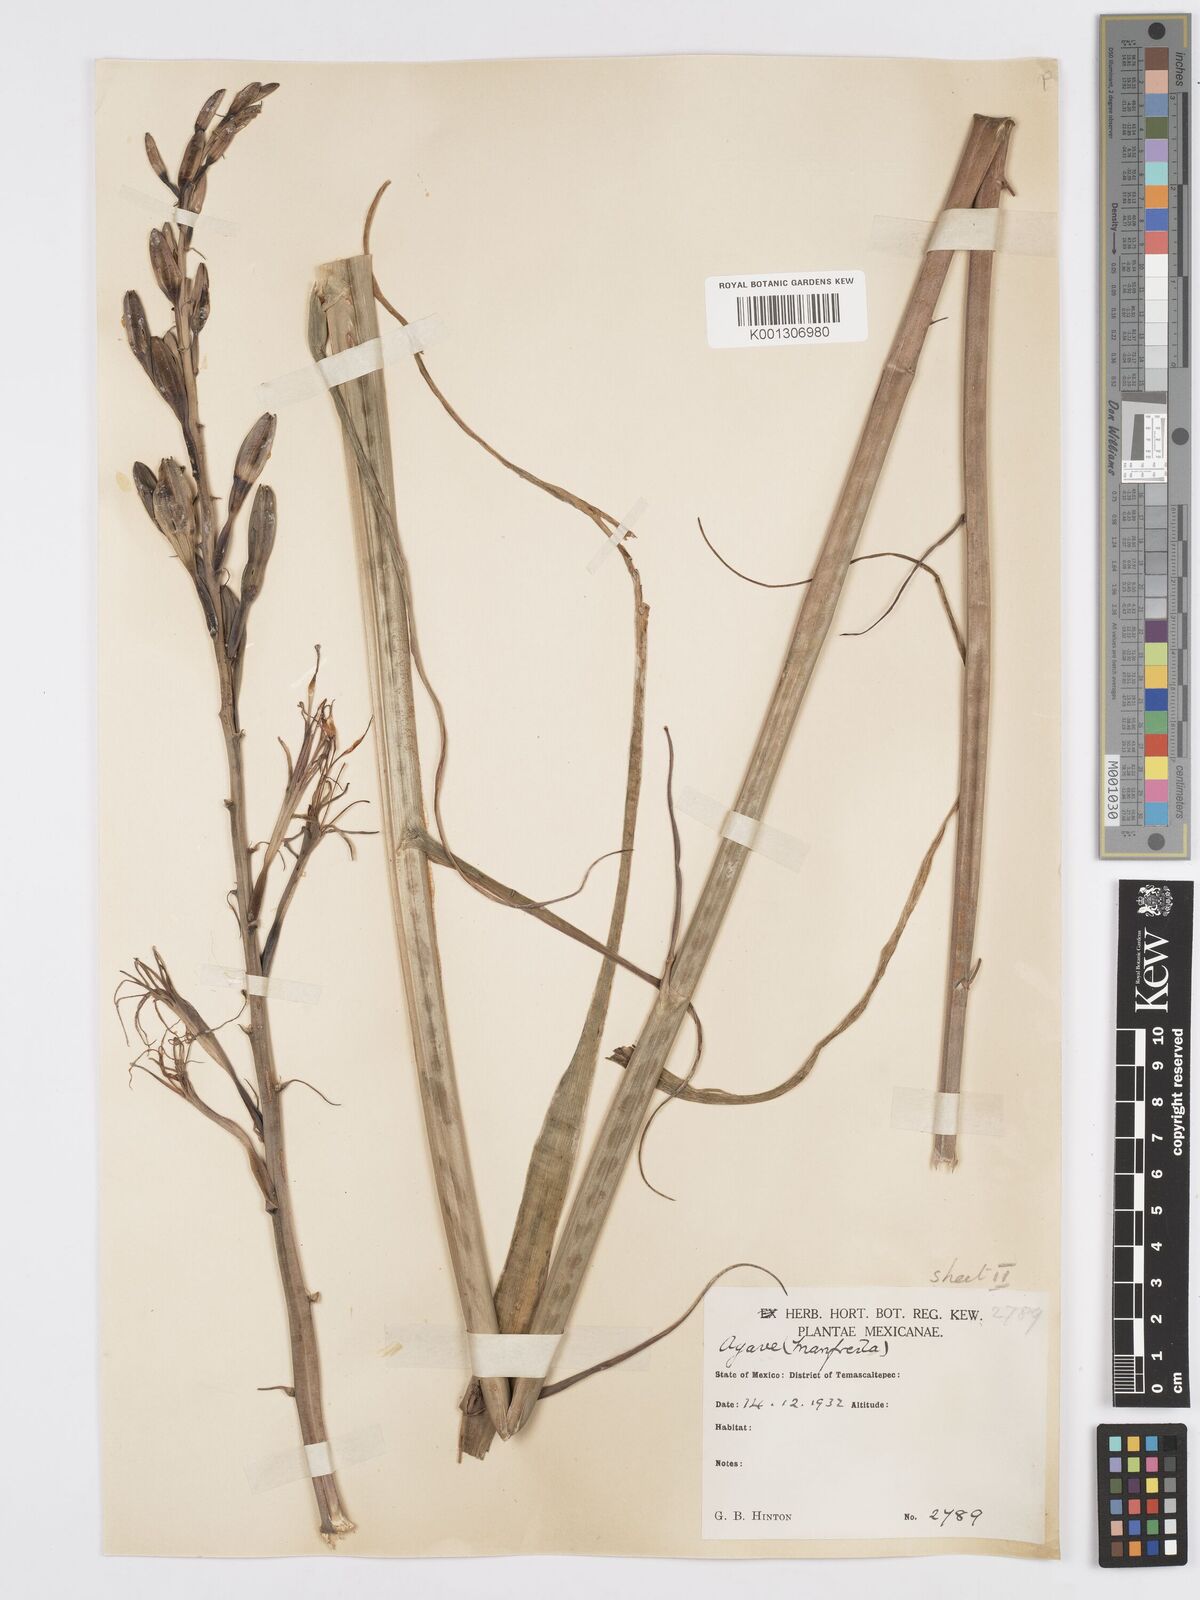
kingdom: Plantae
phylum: Tracheophyta
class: Liliopsida
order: Asparagales
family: Asparagaceae
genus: Agave
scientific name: Agave Manfreda spec
